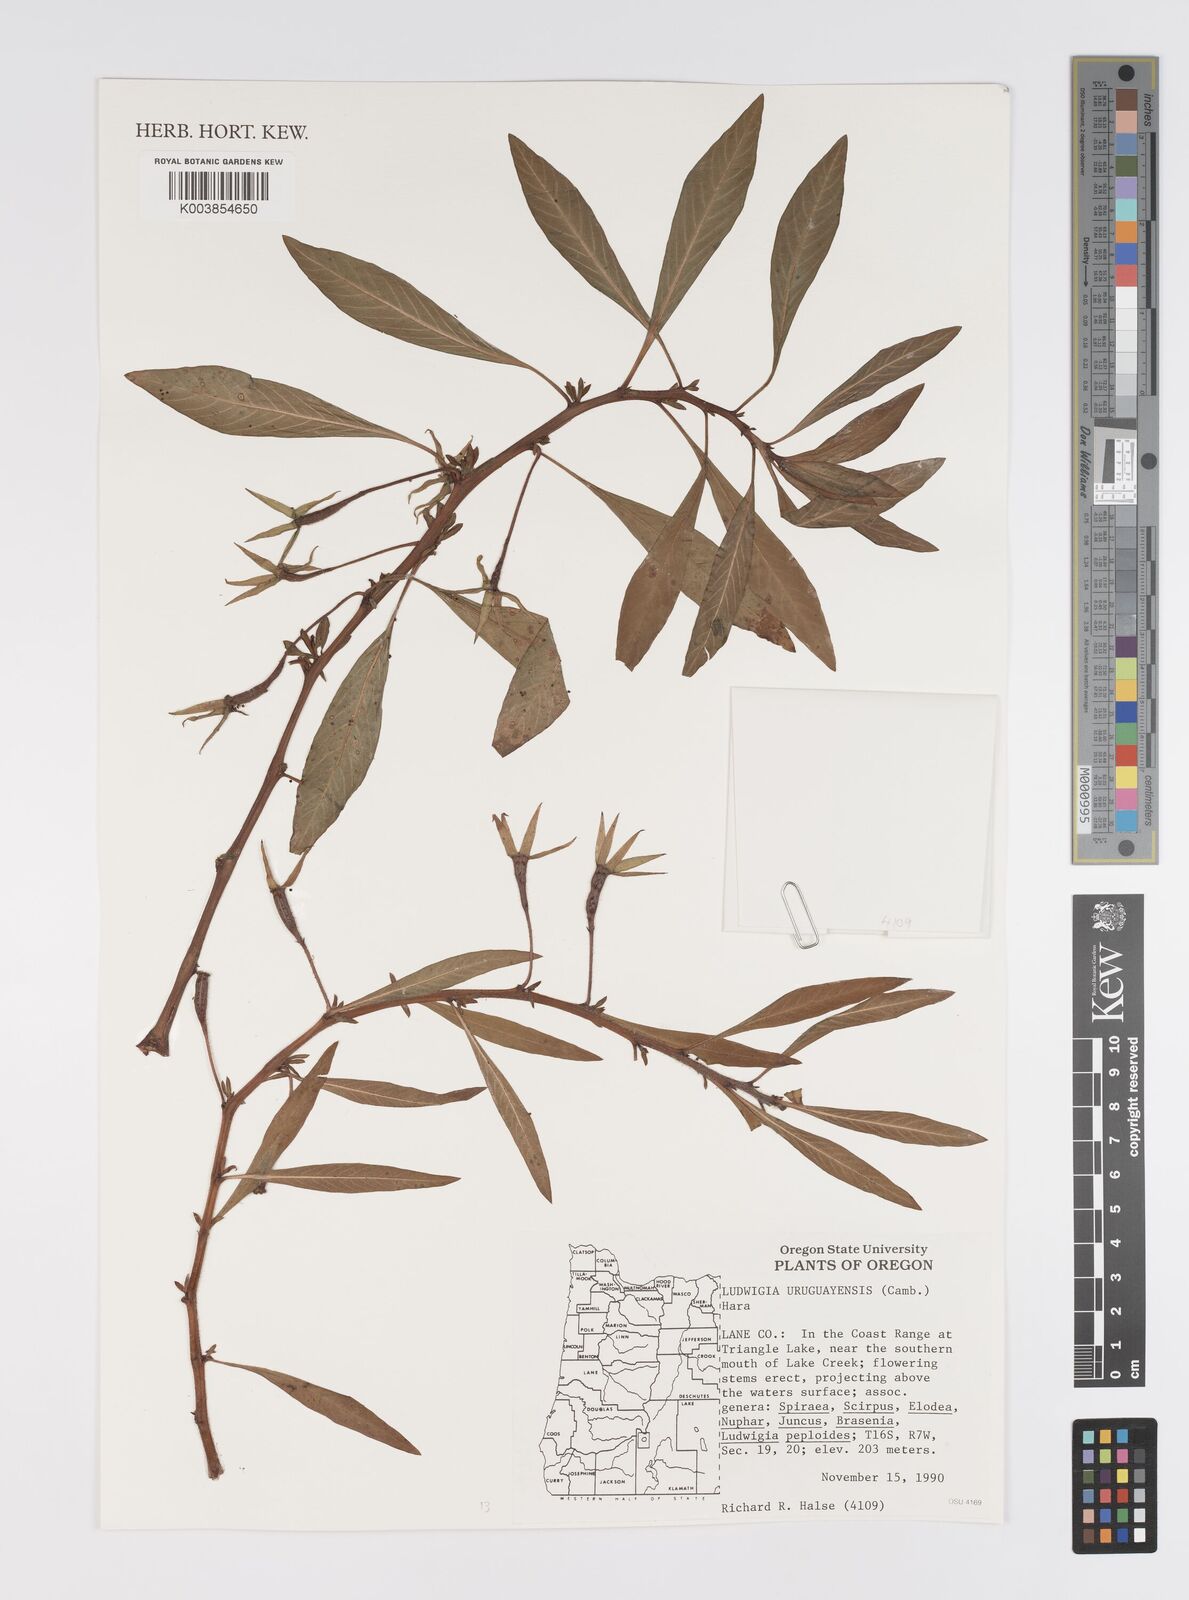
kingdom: Plantae
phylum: Tracheophyta
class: Magnoliopsida
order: Myrtales
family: Onagraceae
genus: Ludwigia
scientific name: Ludwigia grandiflora
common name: Water primrose
